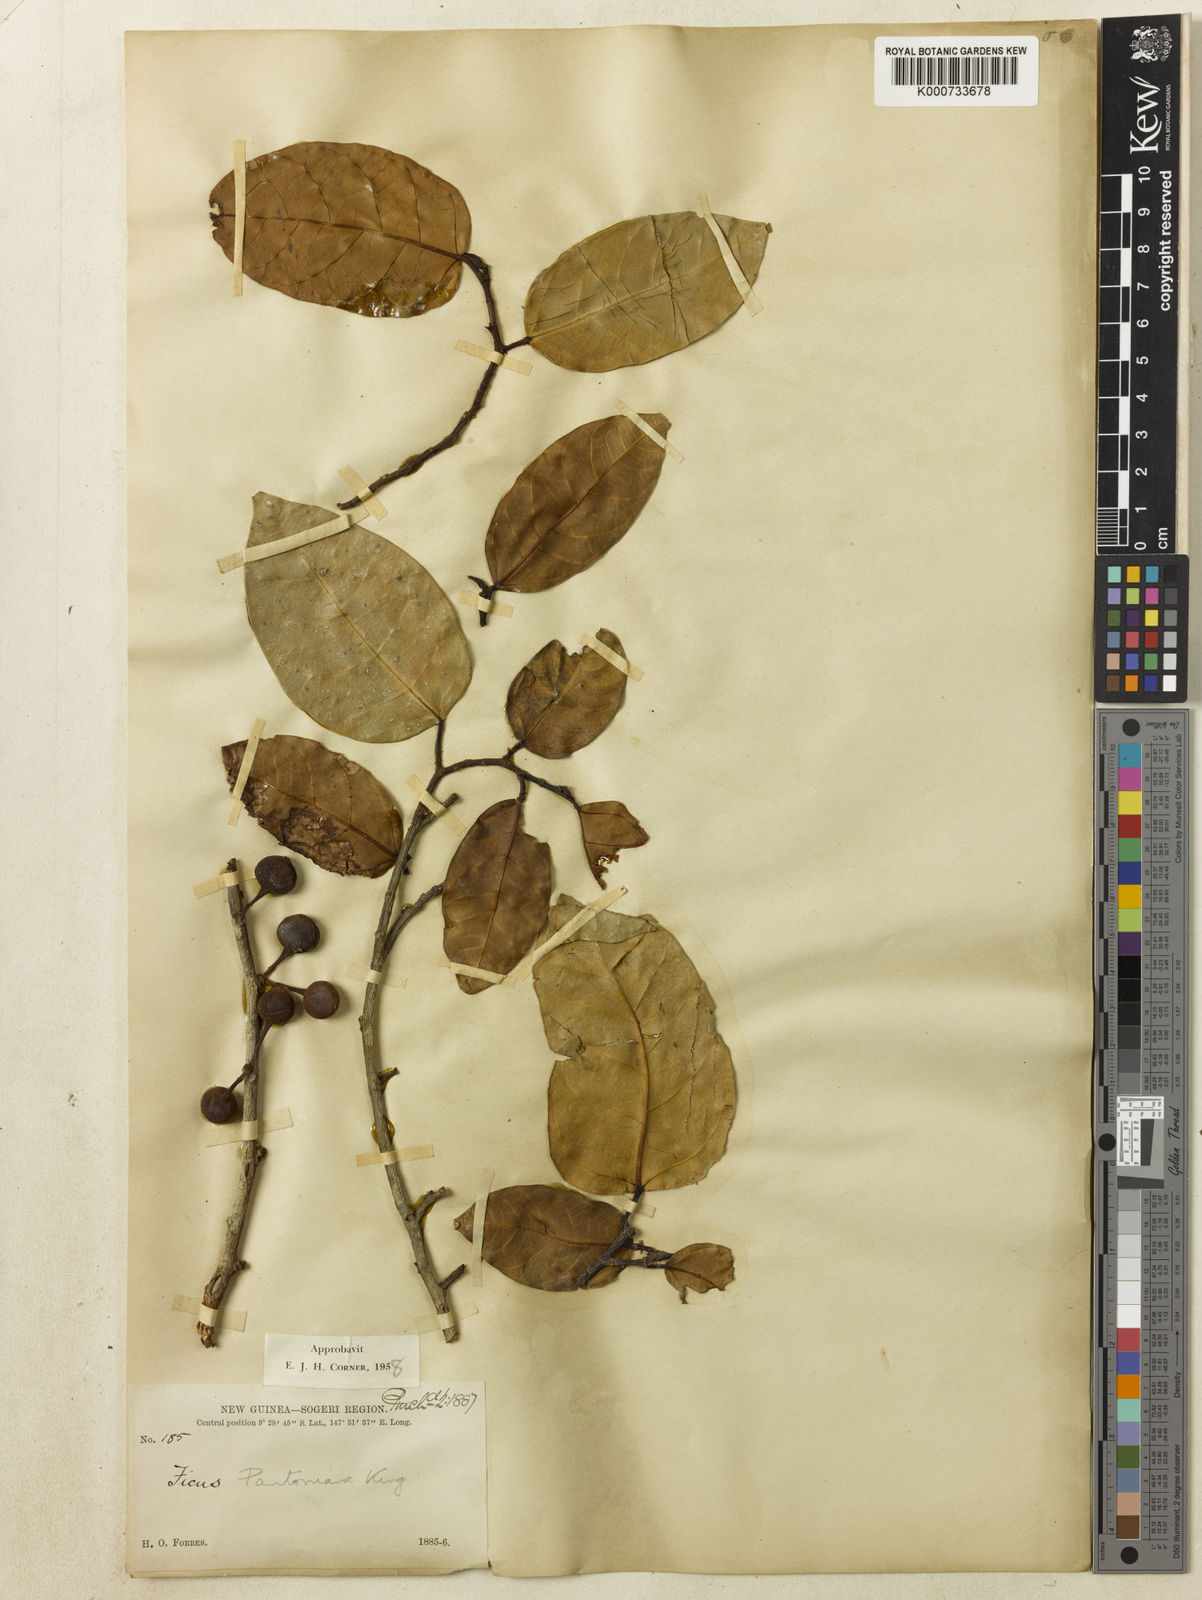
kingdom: Plantae
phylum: Tracheophyta
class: Magnoliopsida
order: Rosales
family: Moraceae
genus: Ficus
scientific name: Ficus pantoniana
